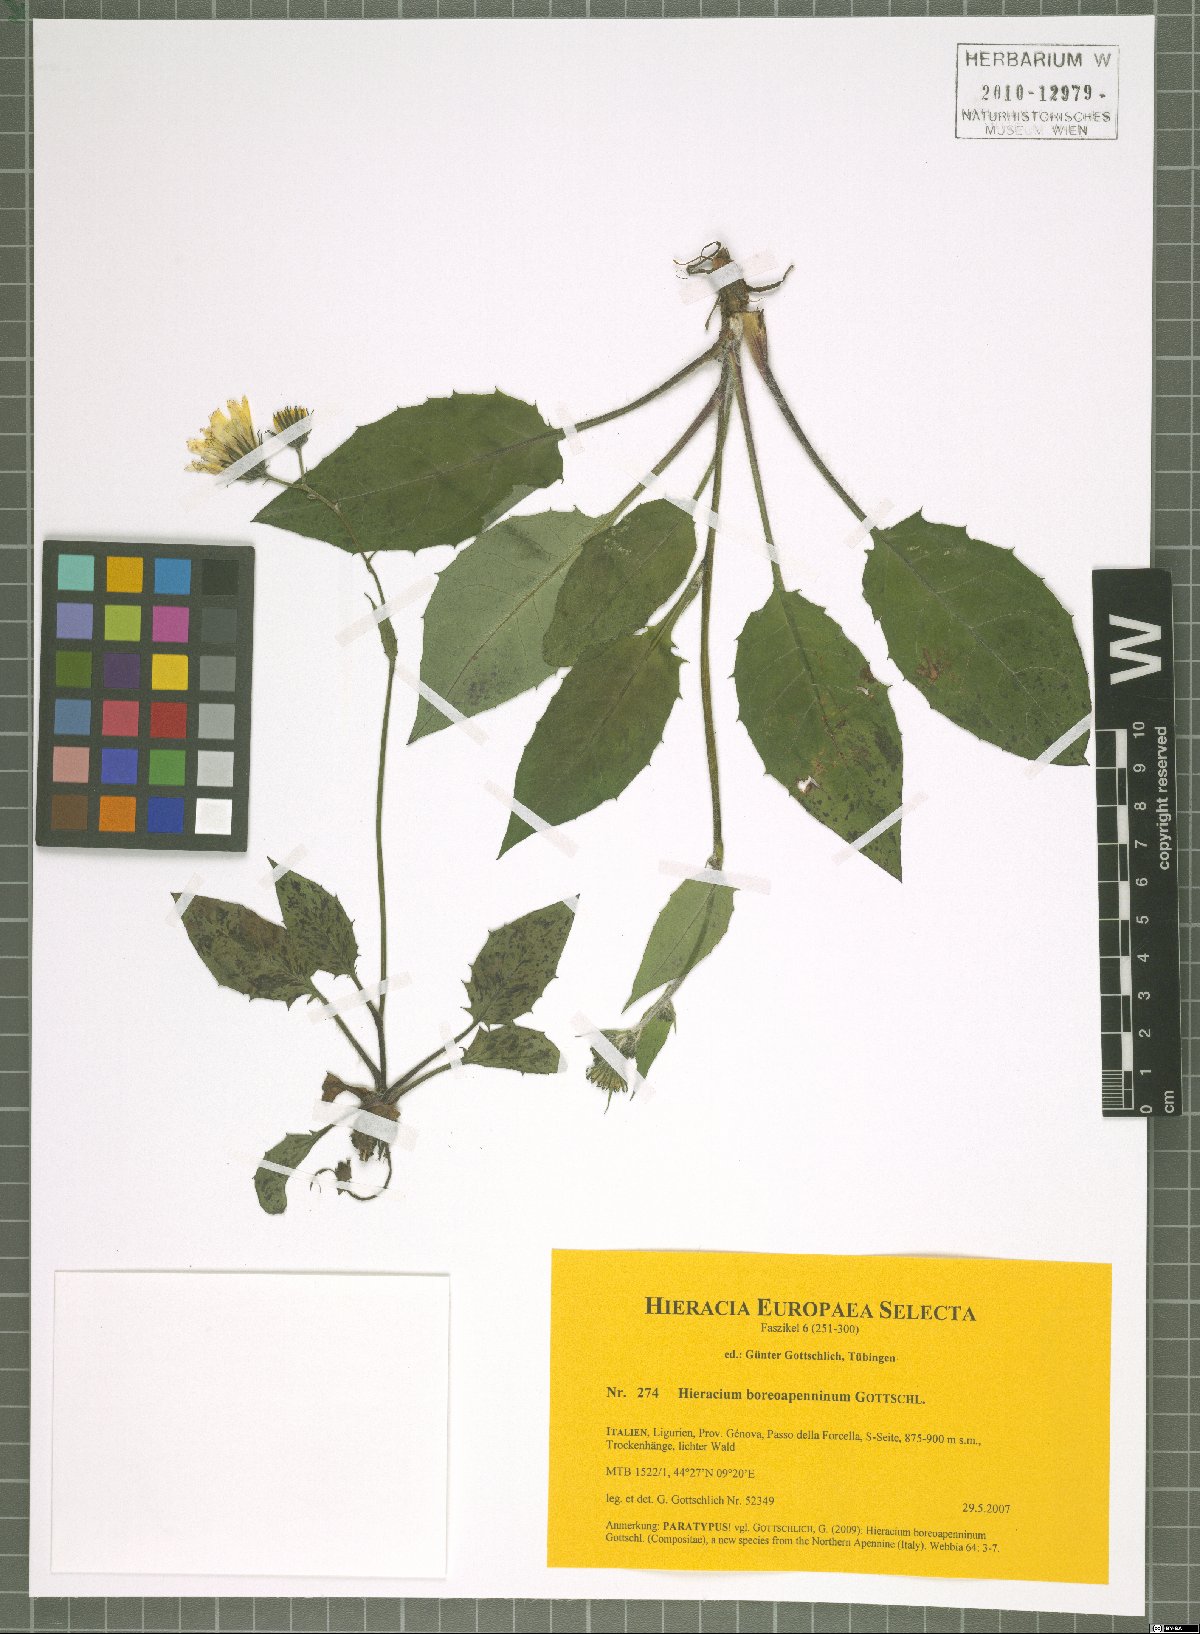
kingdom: Plantae
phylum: Tracheophyta
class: Magnoliopsida
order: Asterales
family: Asteraceae
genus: Hieracium
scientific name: Hieracium boreoapenninum
